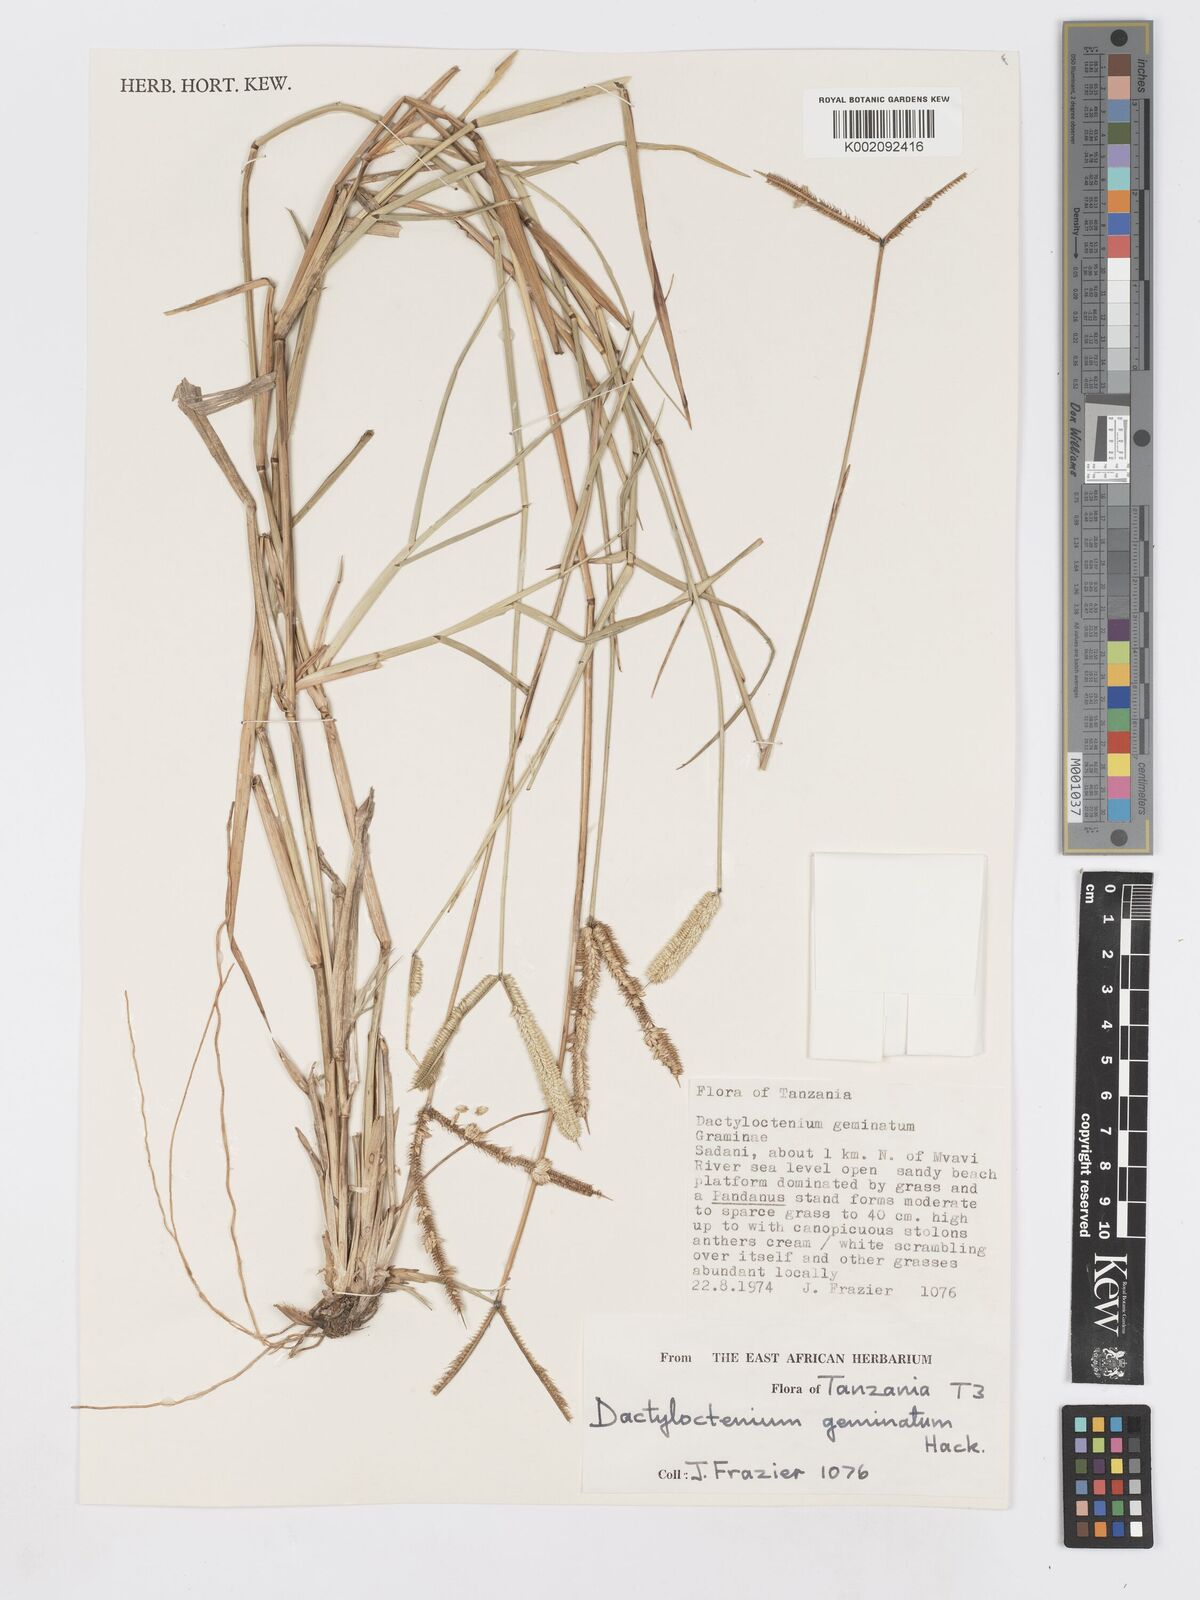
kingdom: Plantae
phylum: Tracheophyta
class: Liliopsida
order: Poales
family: Poaceae
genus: Dactyloctenium
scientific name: Dactyloctenium geminatum
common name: Crowsfoot grass
